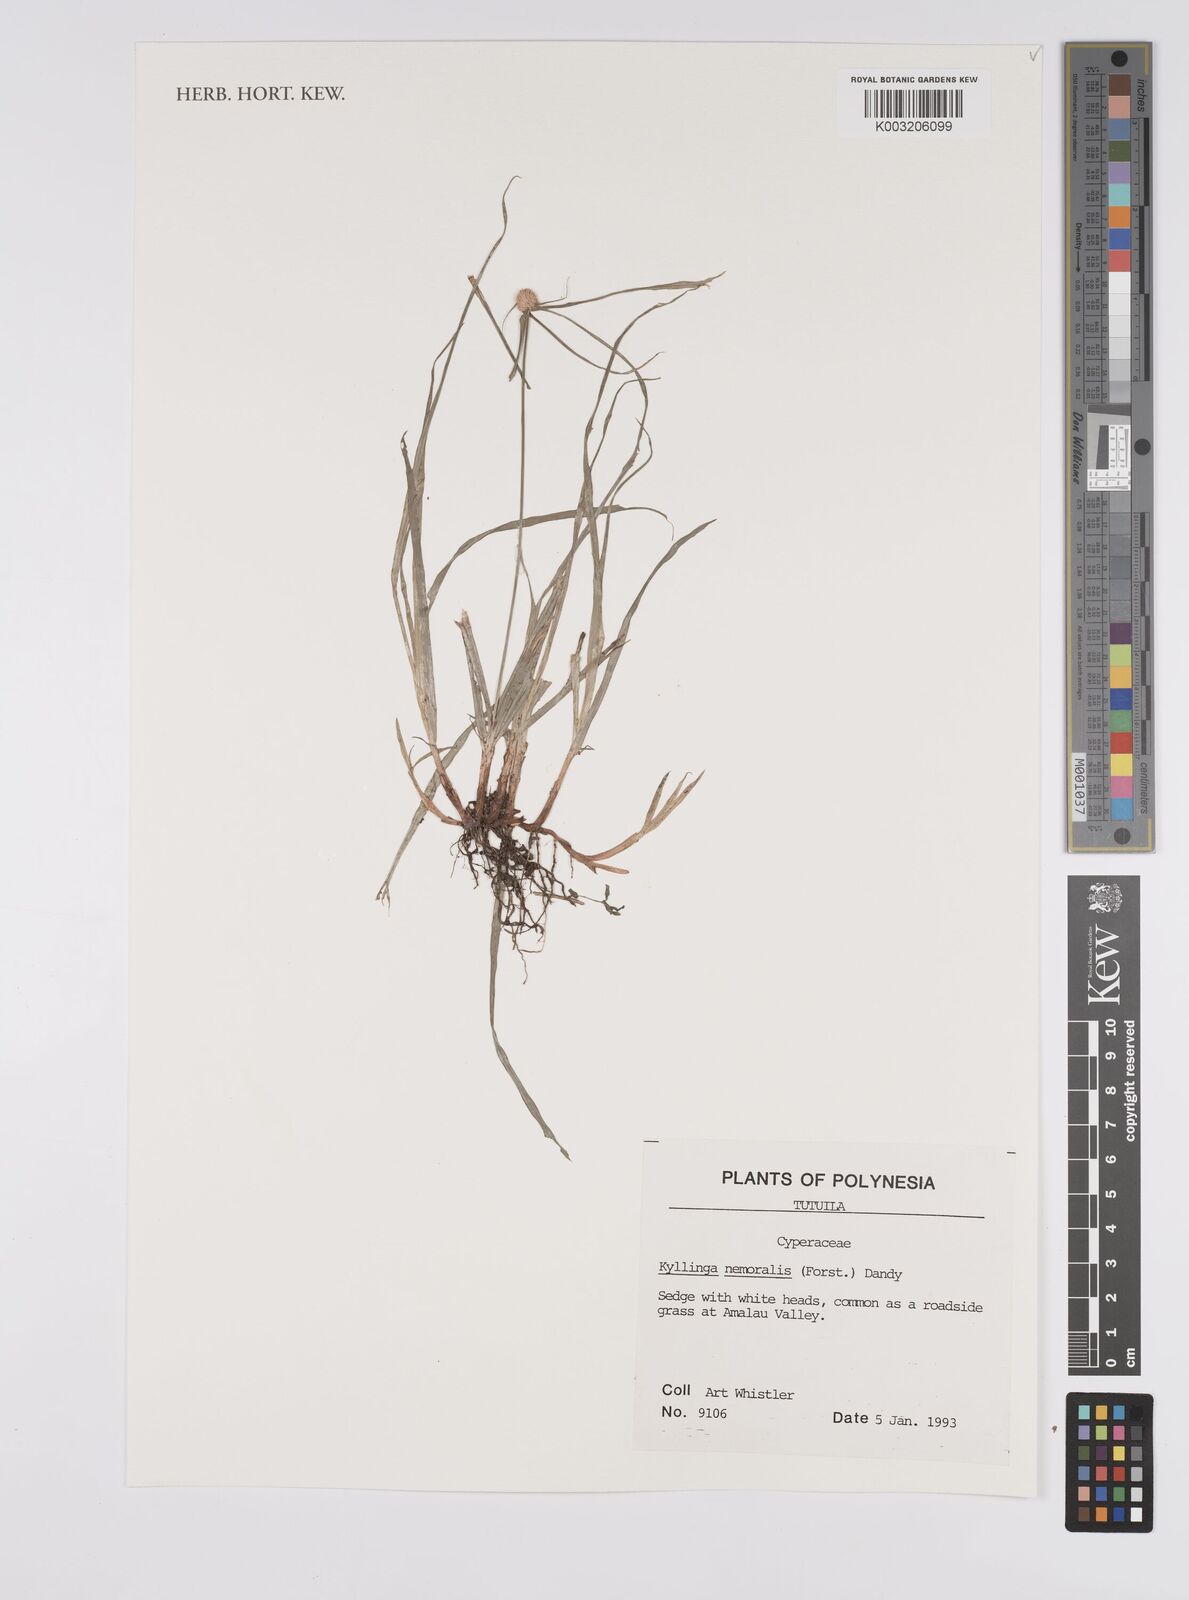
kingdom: Plantae
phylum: Tracheophyta
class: Liliopsida
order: Poales
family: Cyperaceae
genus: Cyperus
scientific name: Cyperus nemoralis
